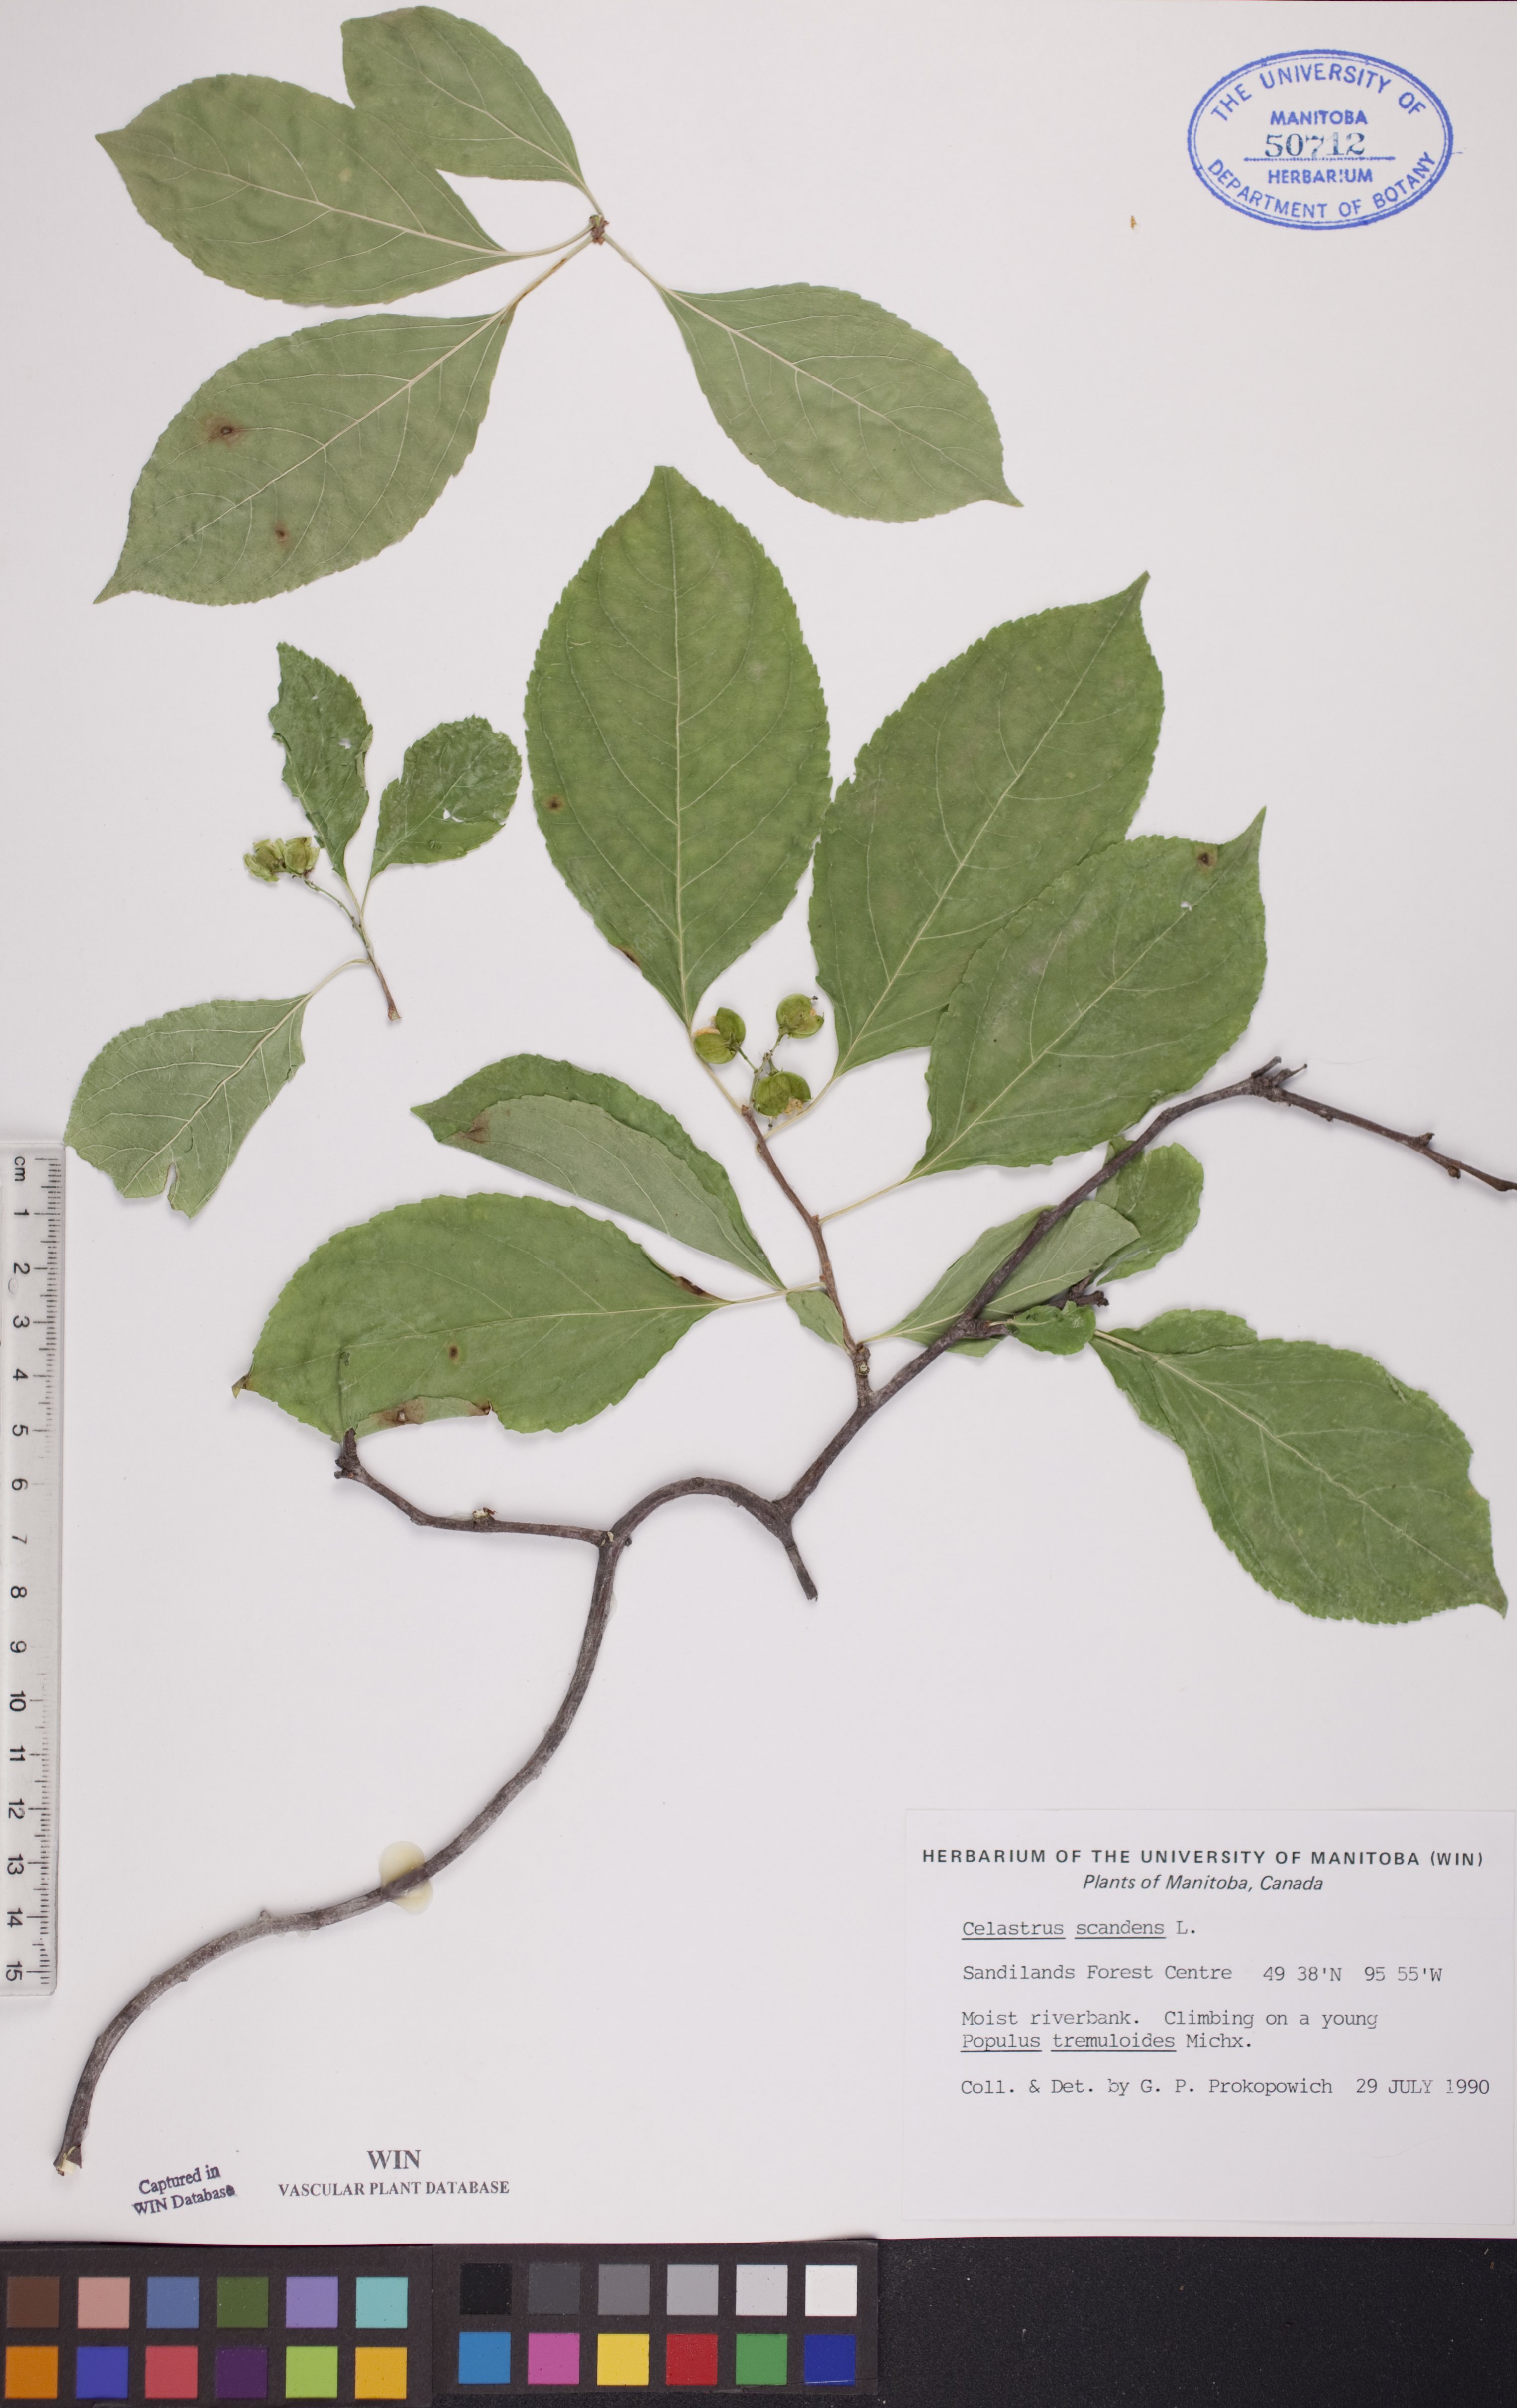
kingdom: Plantae
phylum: Tracheophyta
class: Magnoliopsida
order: Celastrales
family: Celastraceae
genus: Celastrus
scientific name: Celastrus scandens
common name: American bittersweet
